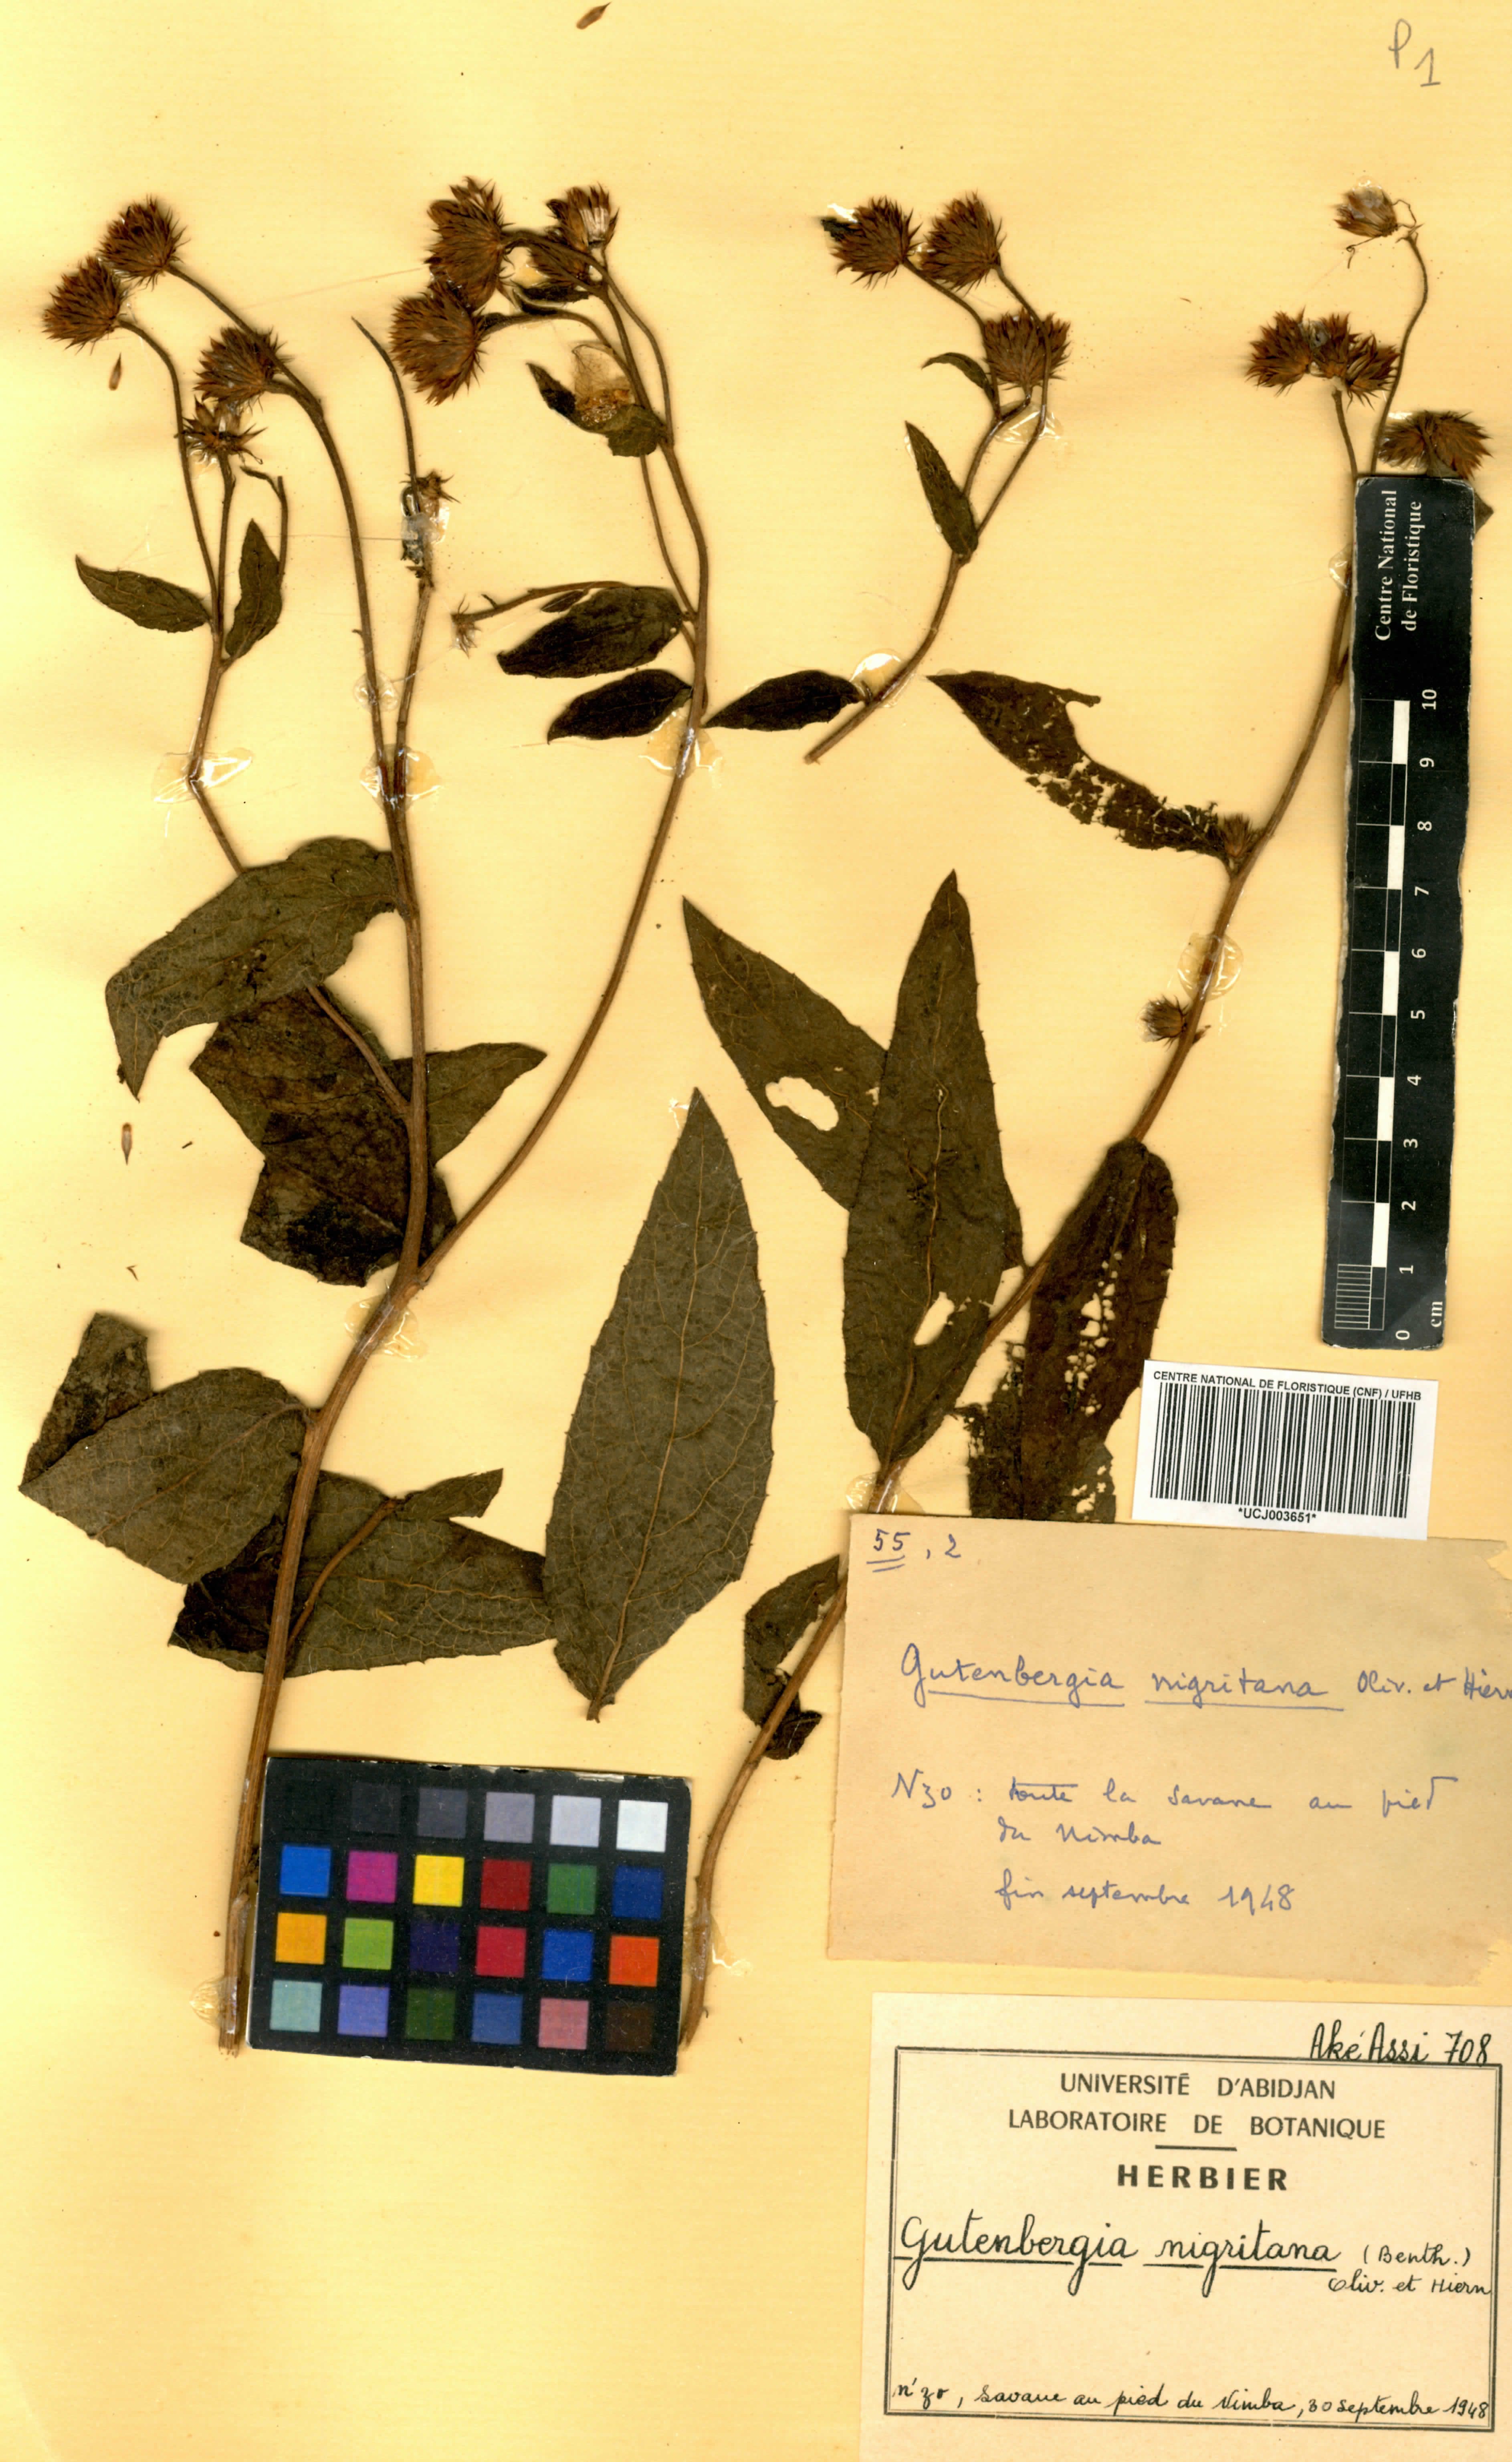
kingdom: Plantae
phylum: Tracheophyta
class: Magnoliopsida
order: Asterales
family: Asteraceae
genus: Kinghamia
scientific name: Kinghamia nigritana
